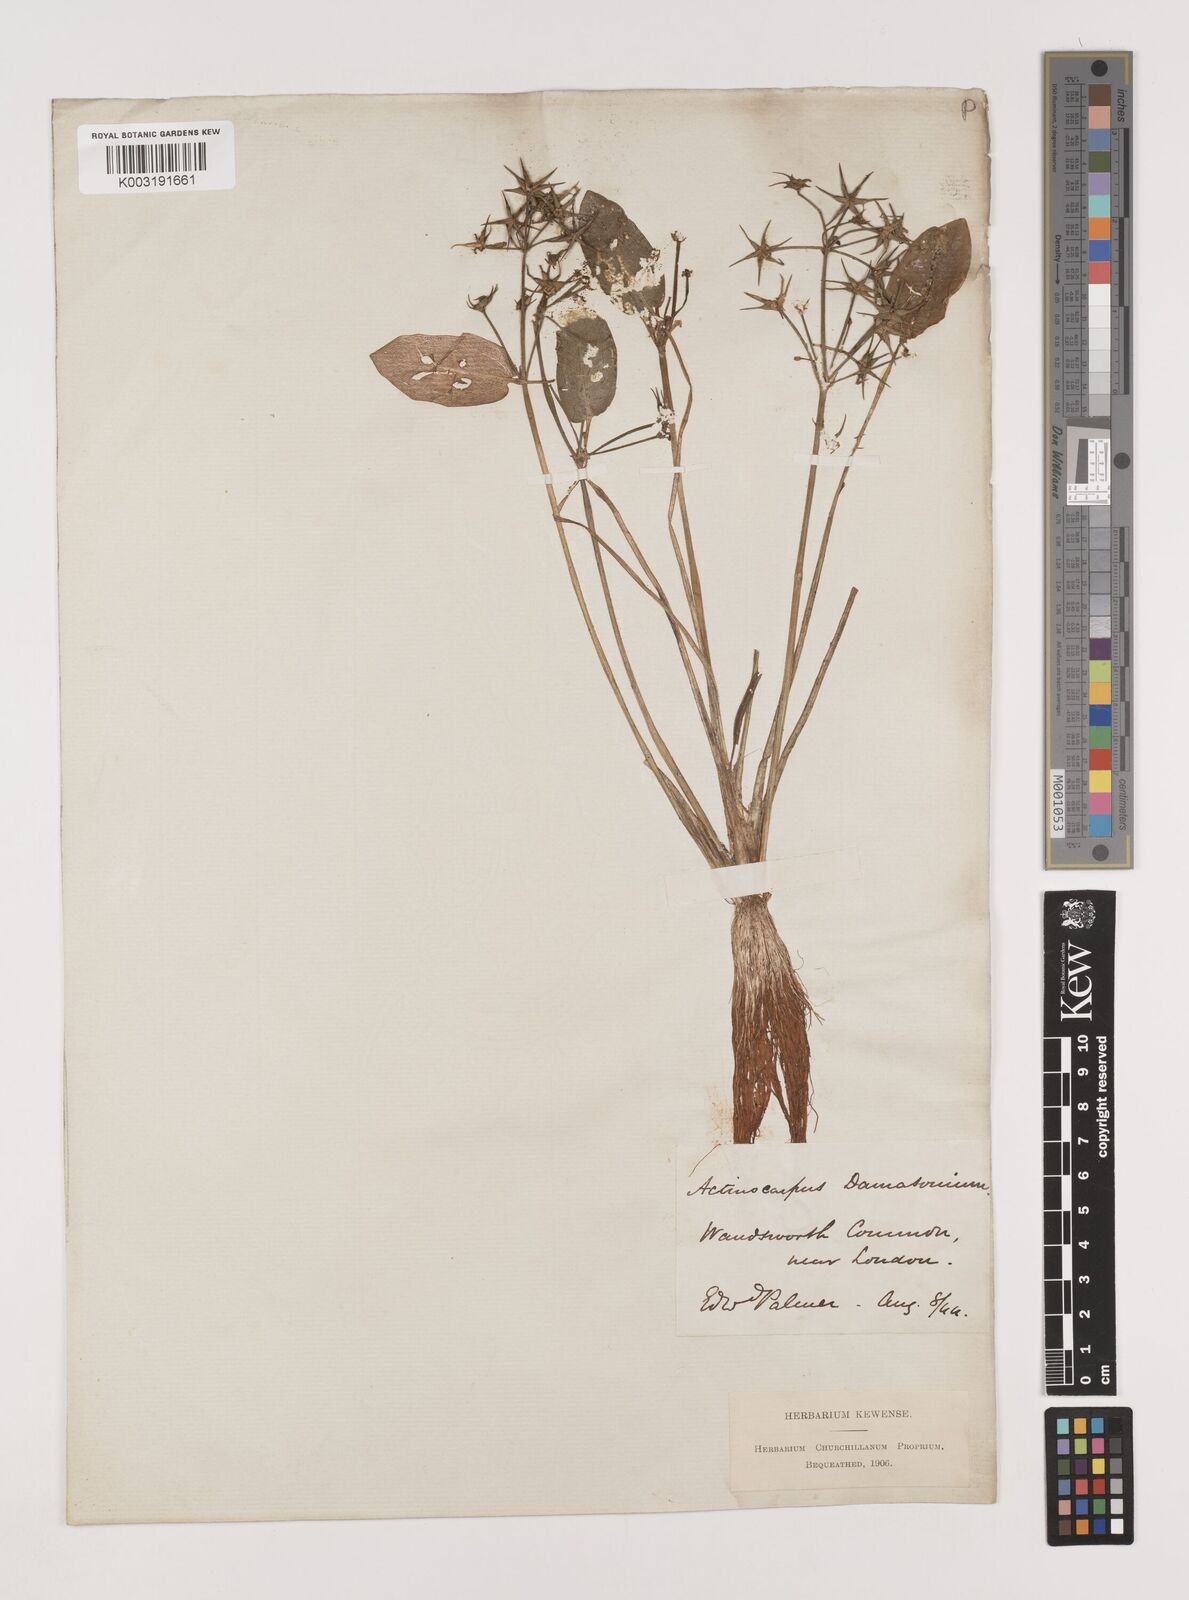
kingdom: Plantae
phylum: Tracheophyta
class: Liliopsida
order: Alismatales
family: Alismataceae
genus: Damasonium
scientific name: Damasonium alisma
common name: Starfruit
